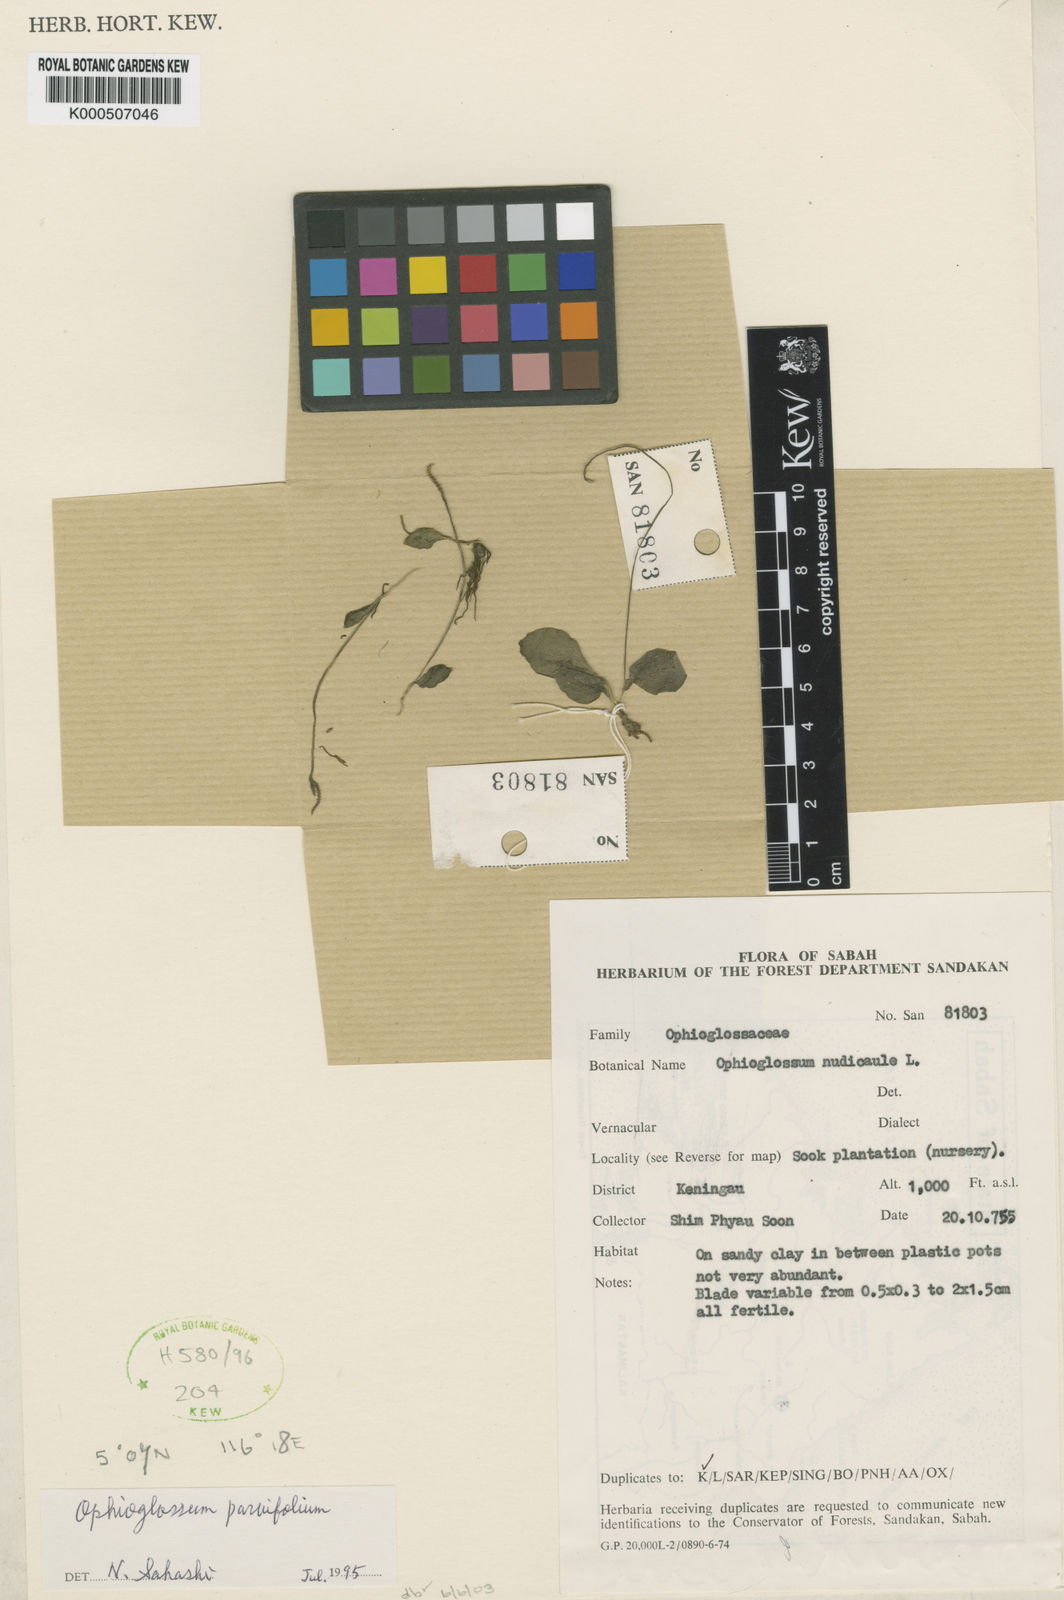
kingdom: Plantae
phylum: Tracheophyta
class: Polypodiopsida
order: Ophioglossales
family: Ophioglossaceae
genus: Ophioglossum
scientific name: Ophioglossum parvifolium
